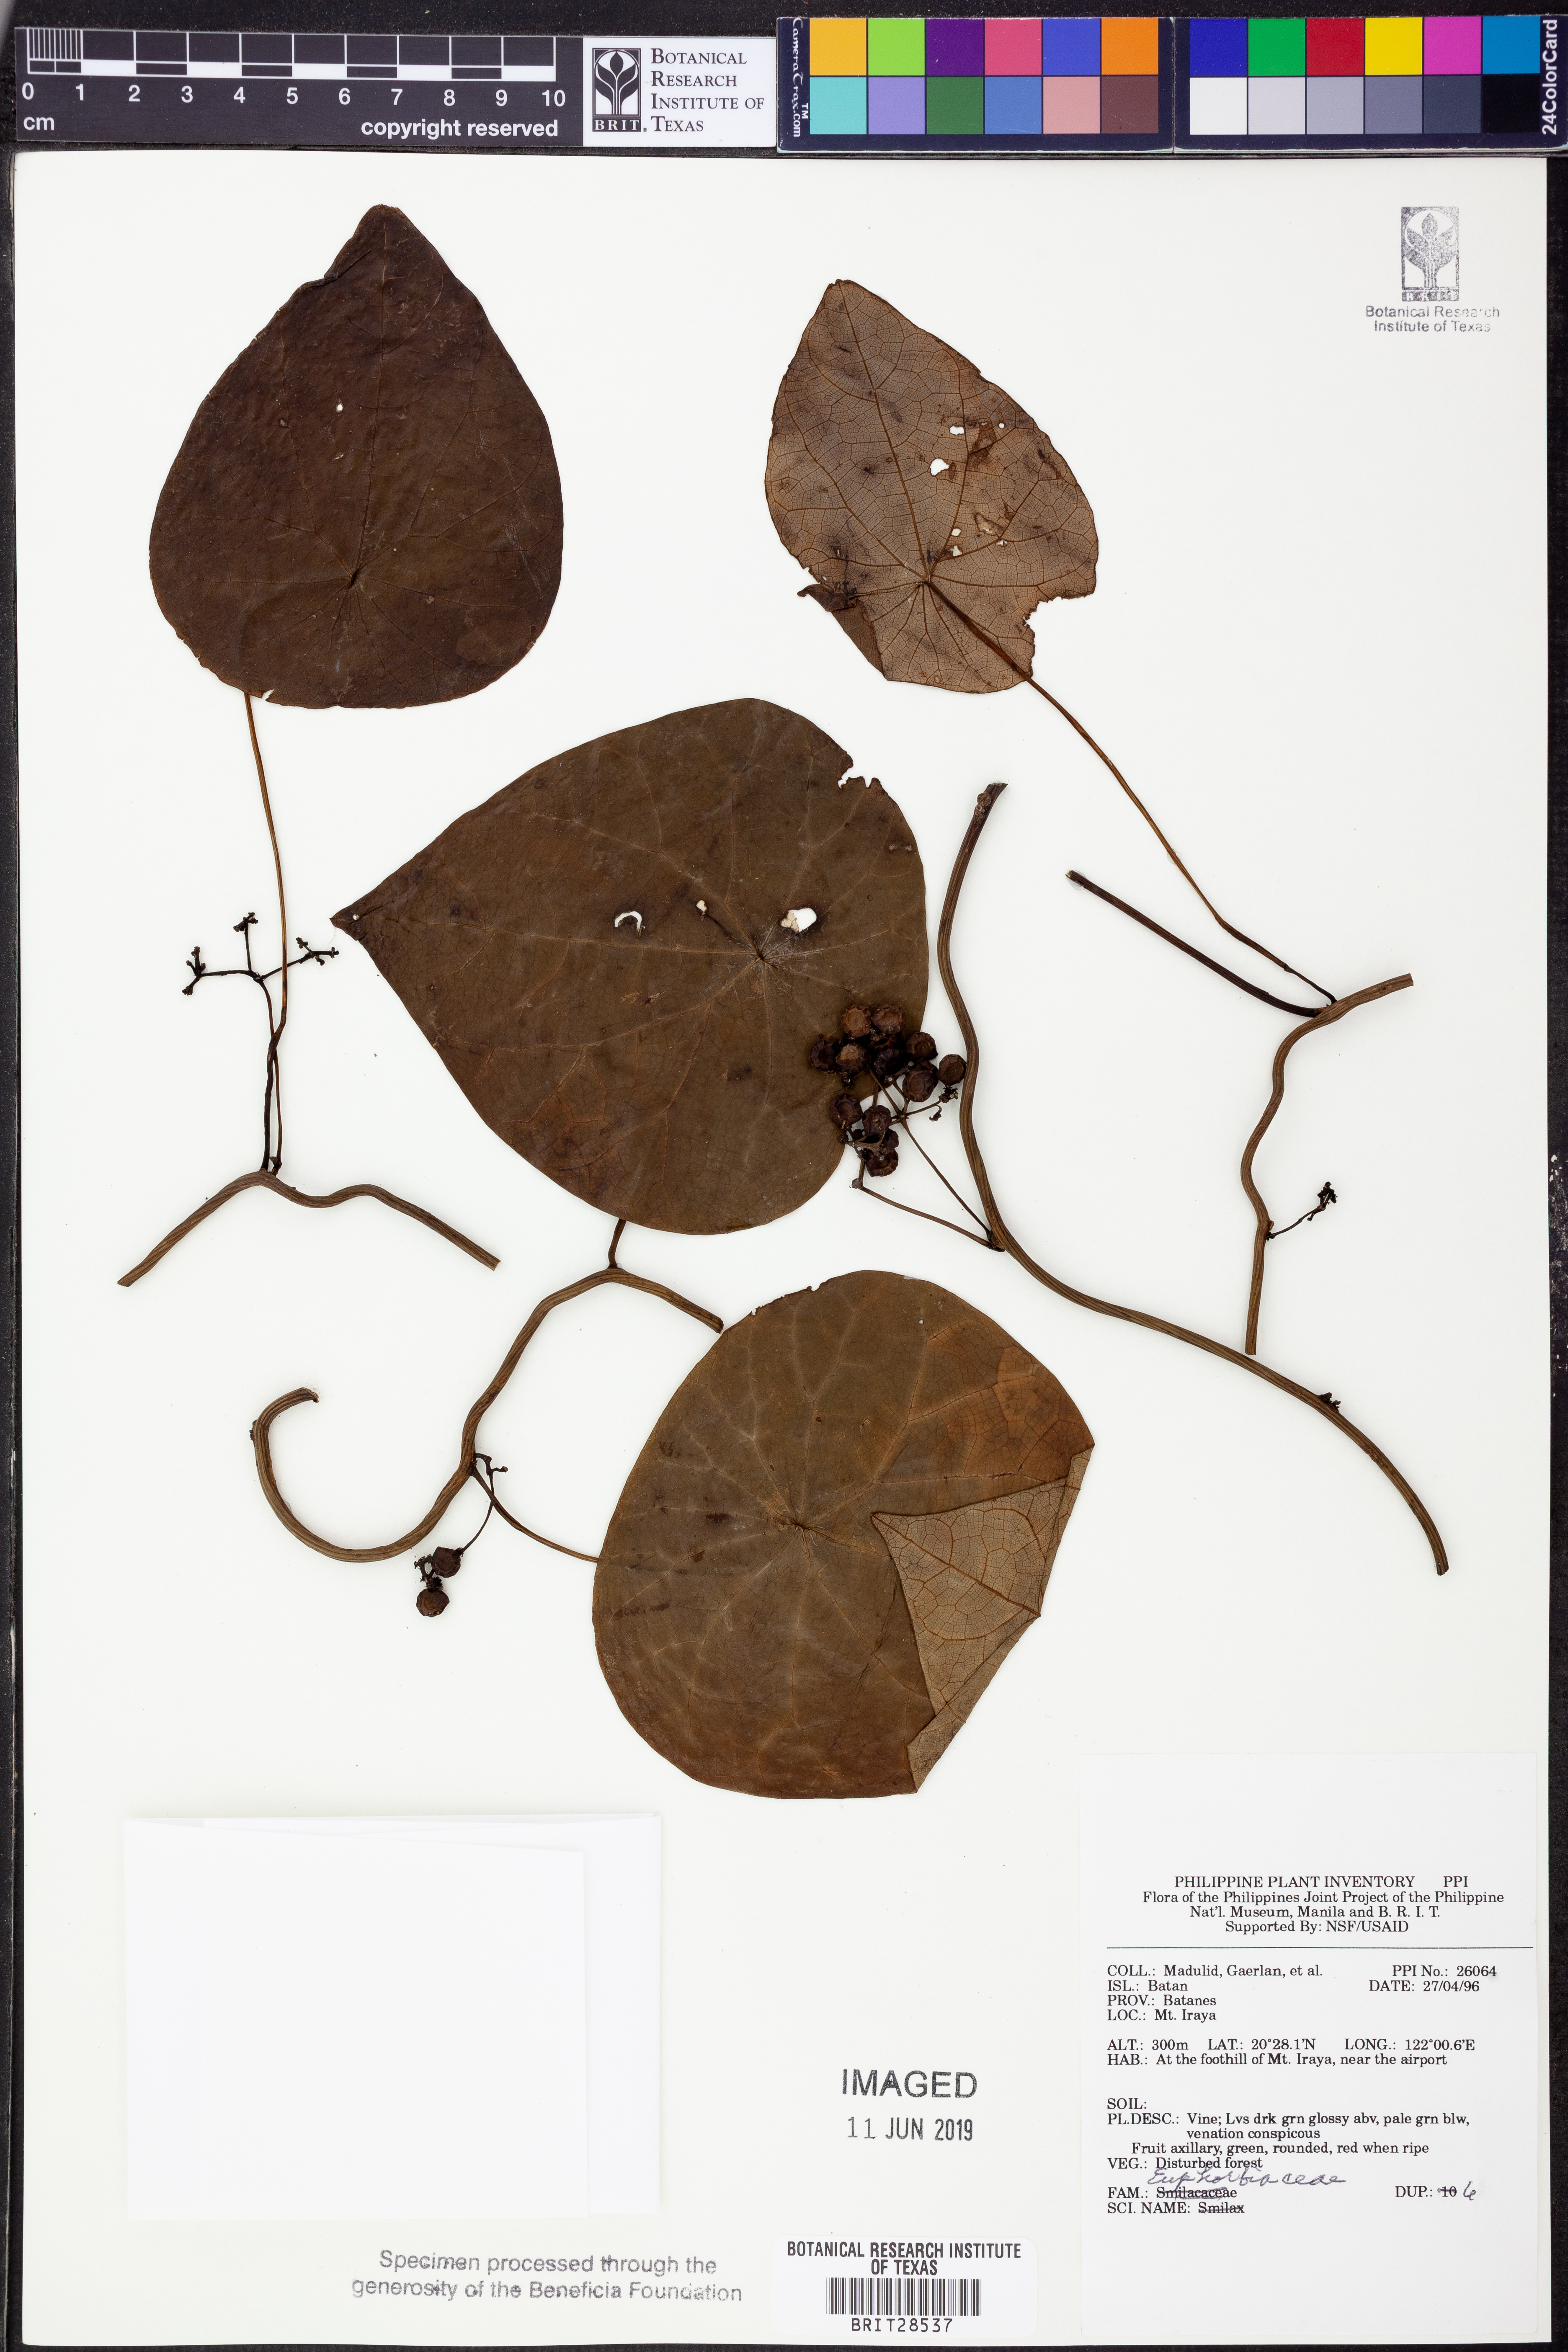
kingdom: Plantae
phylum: Tracheophyta
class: Magnoliopsida
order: Malpighiales
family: Euphorbiaceae
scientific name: Euphorbiaceae
